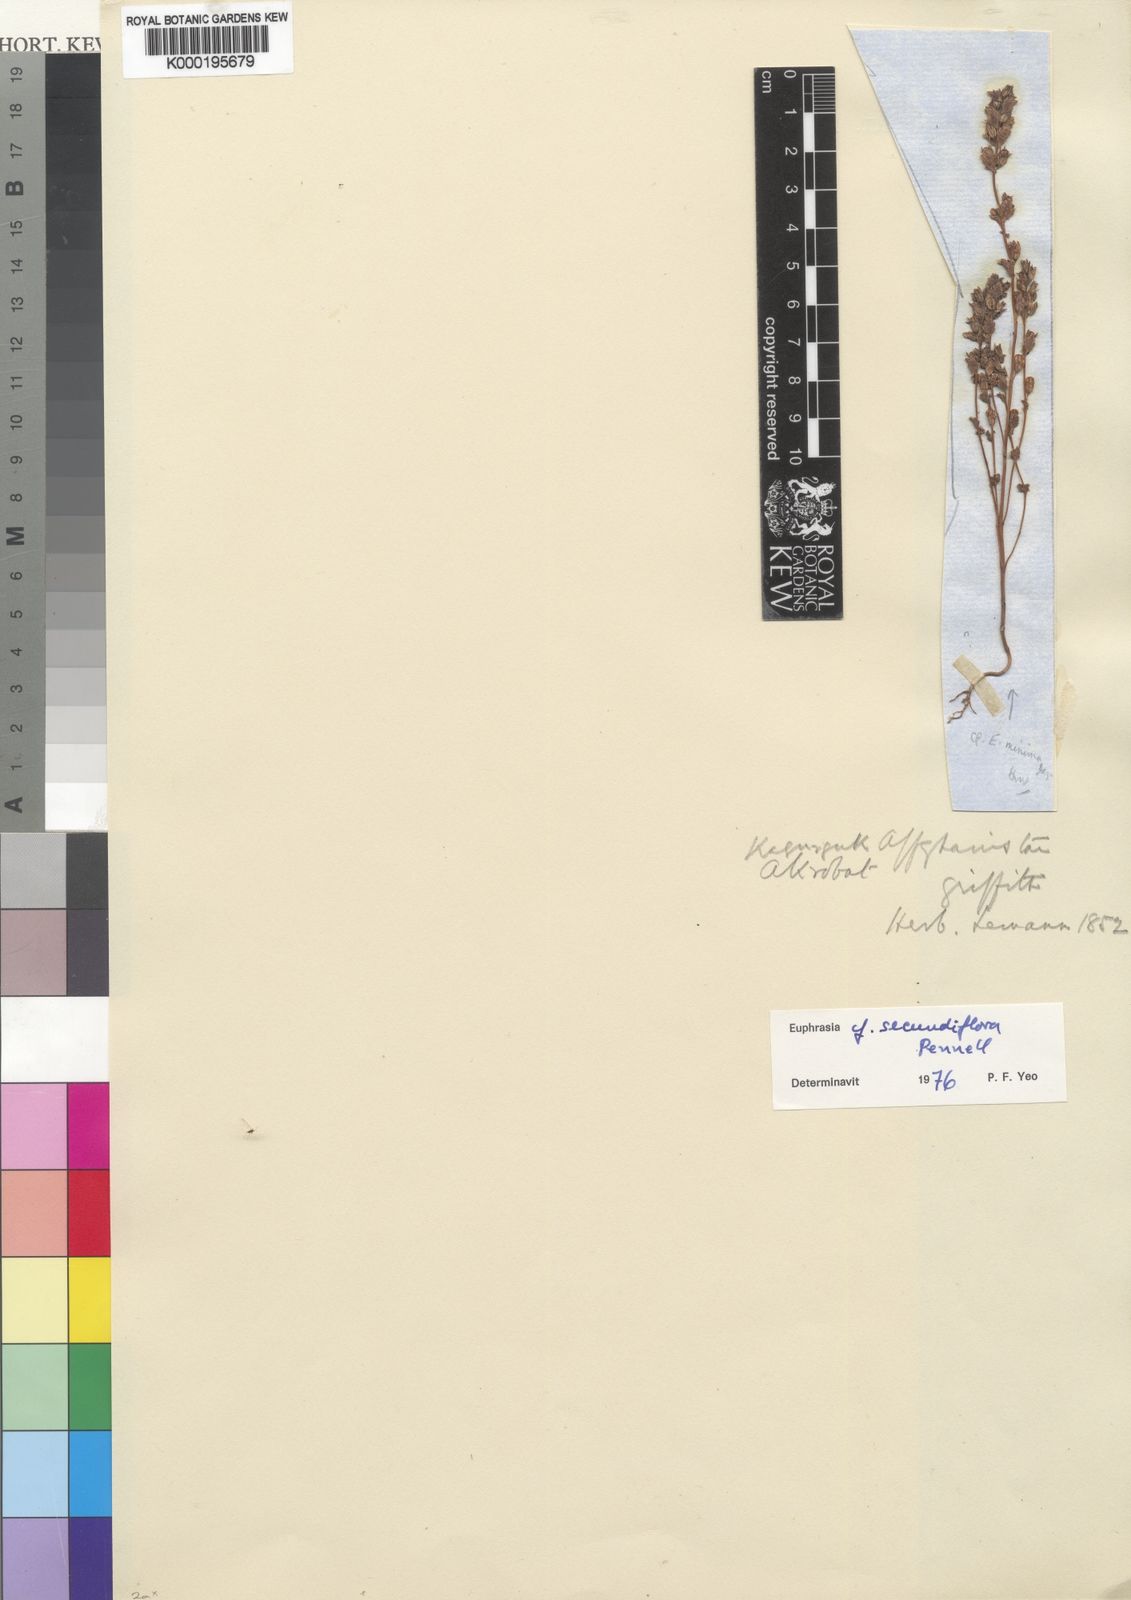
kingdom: Plantae
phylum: Tracheophyta
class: Magnoliopsida
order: Lamiales
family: Orobanchaceae
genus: Euphrasia
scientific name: Euphrasia secundiflora
